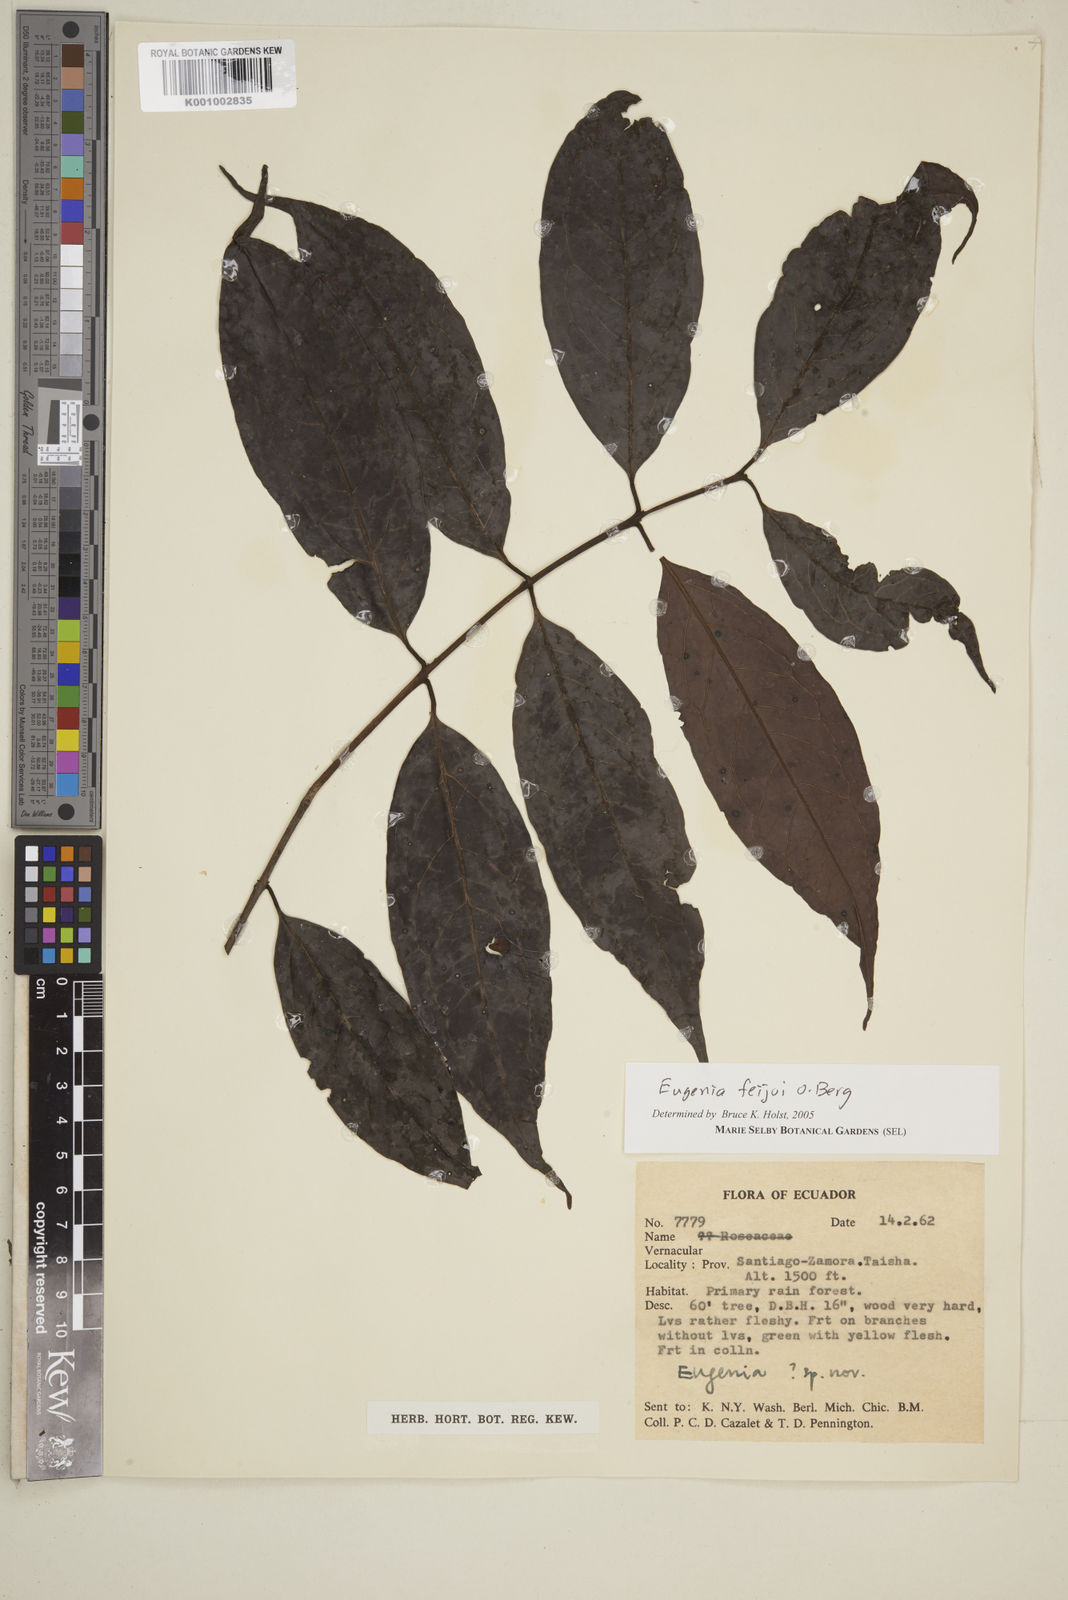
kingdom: Plantae
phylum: Tracheophyta
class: Magnoliopsida
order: Myrtales
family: Myrtaceae
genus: Eugenia
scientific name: Eugenia feijoi
